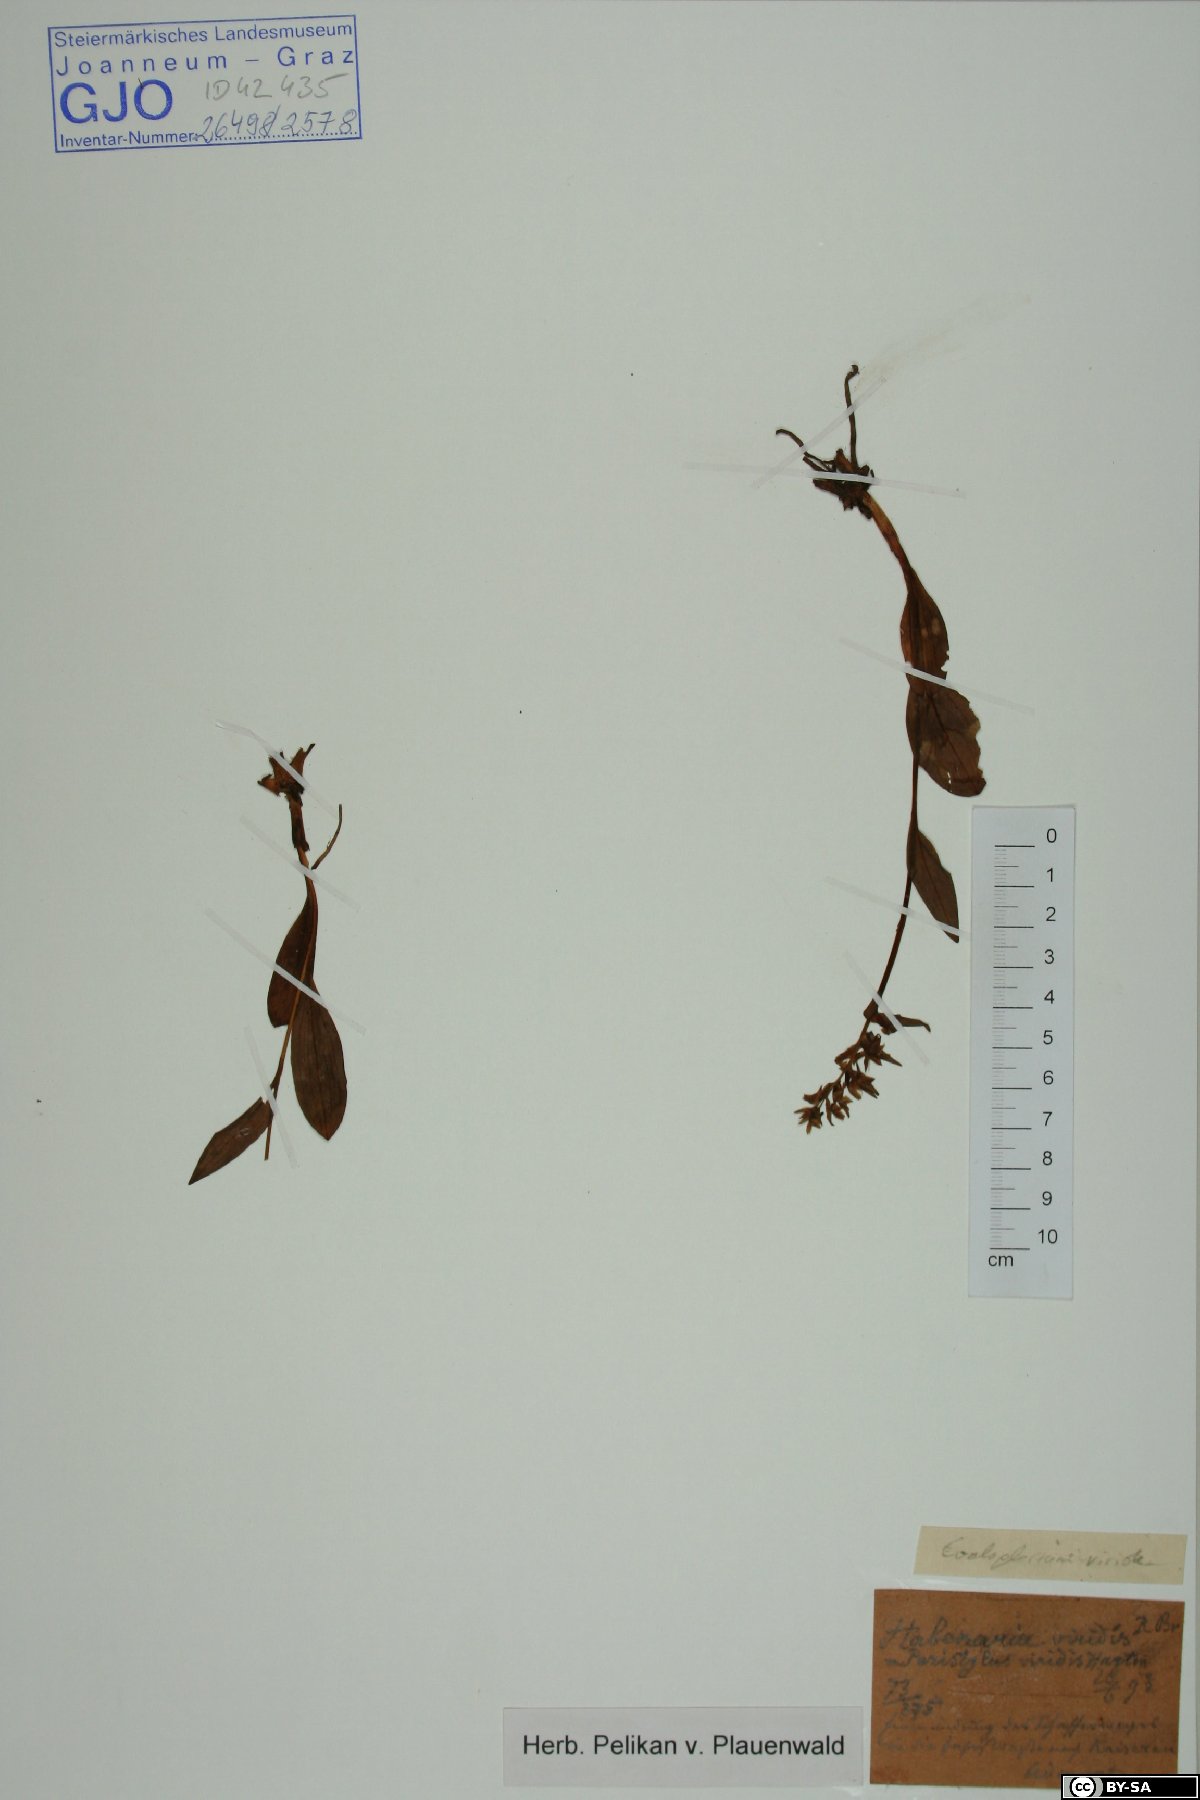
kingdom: Plantae
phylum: Tracheophyta
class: Liliopsida
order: Asparagales
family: Orchidaceae
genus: Dactylorhiza
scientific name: Dactylorhiza viridis
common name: Longbract frog orchid
